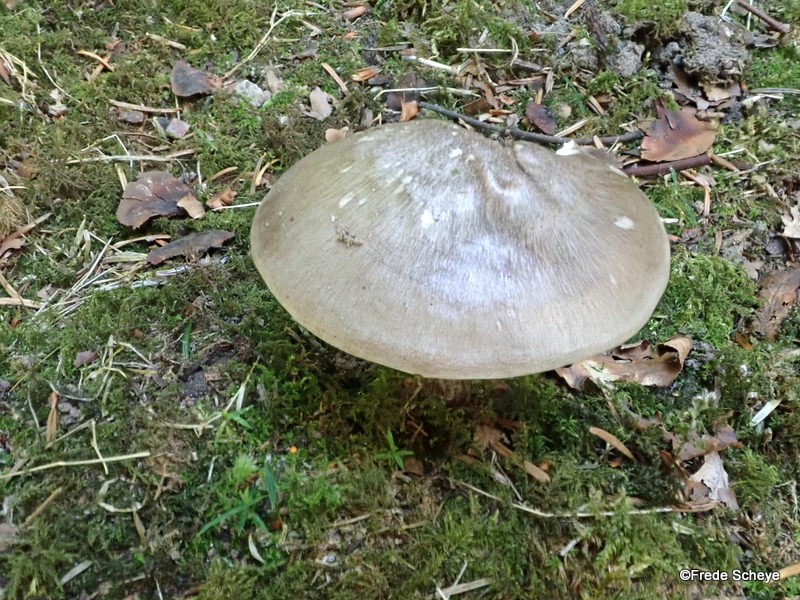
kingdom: Fungi
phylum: Basidiomycota
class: Agaricomycetes
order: Agaricales
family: Pluteaceae
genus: Pluteus
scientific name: Pluteus cervinus
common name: sodfarvet skærmhat
